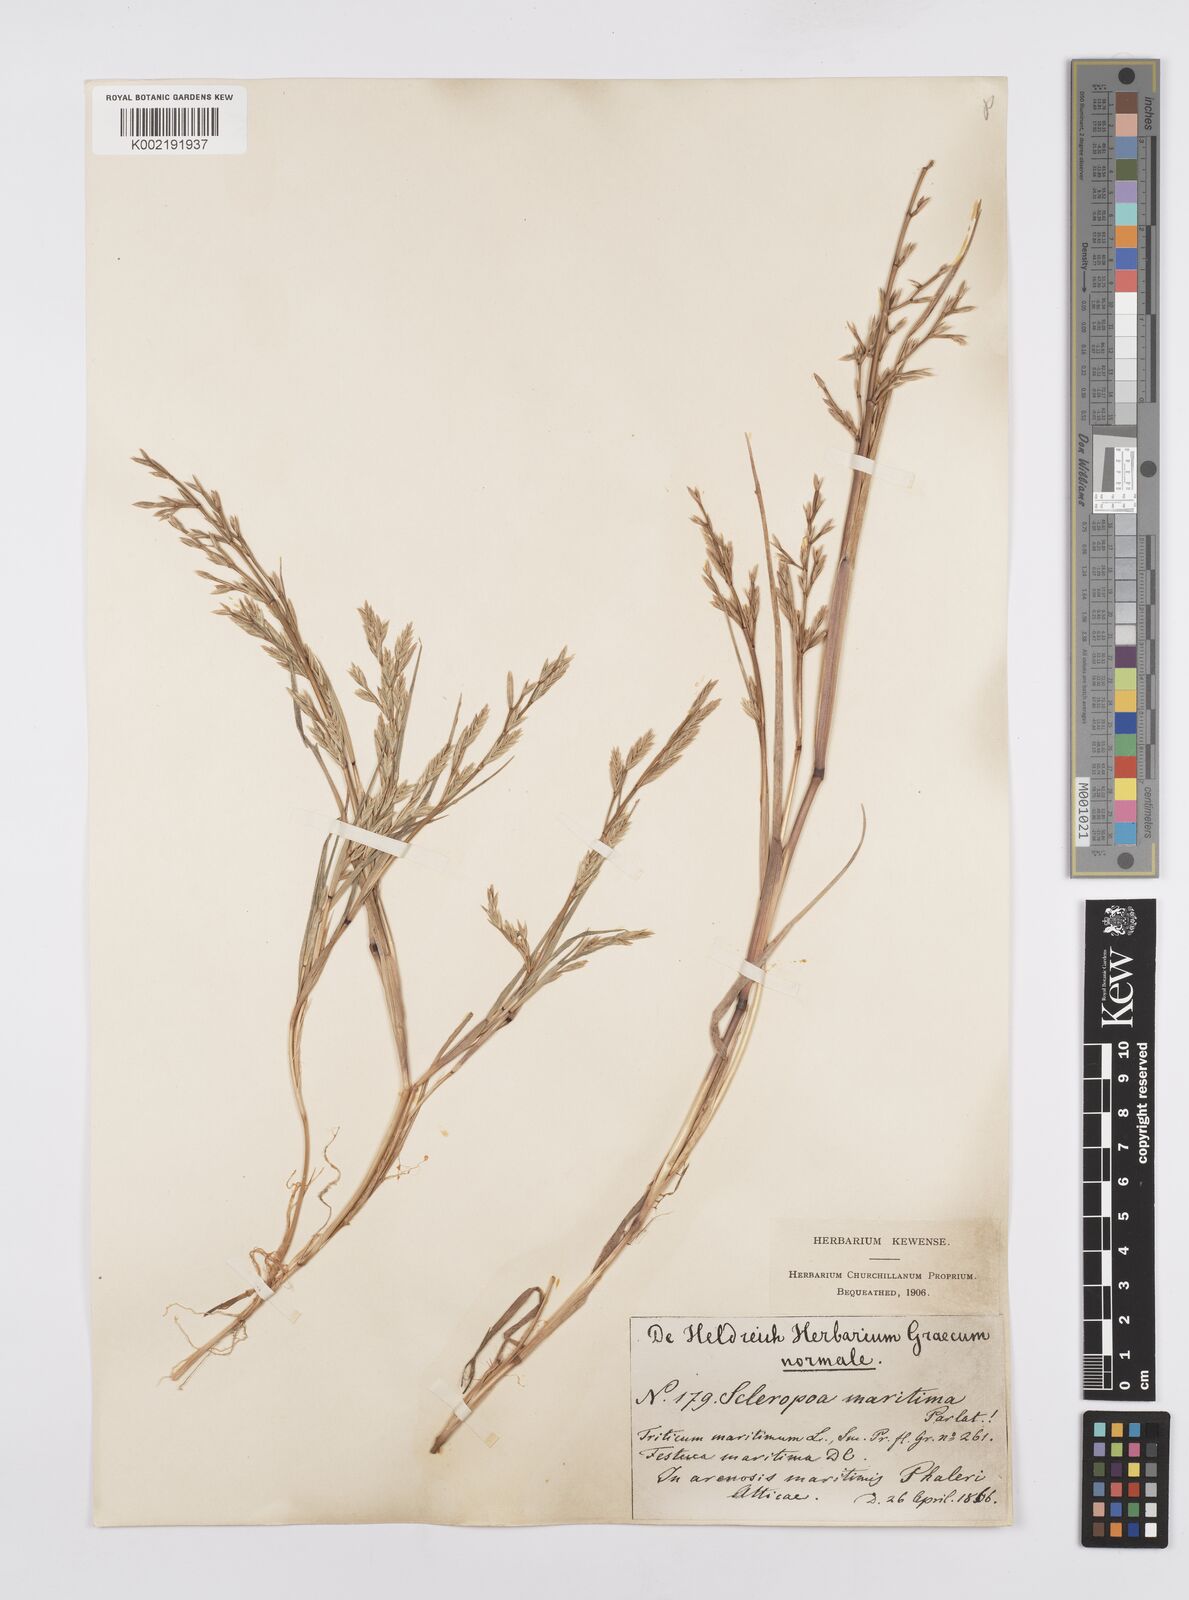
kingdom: Plantae
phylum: Tracheophyta
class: Liliopsida
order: Poales
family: Poaceae
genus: Cutandia
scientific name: Cutandia maritima
